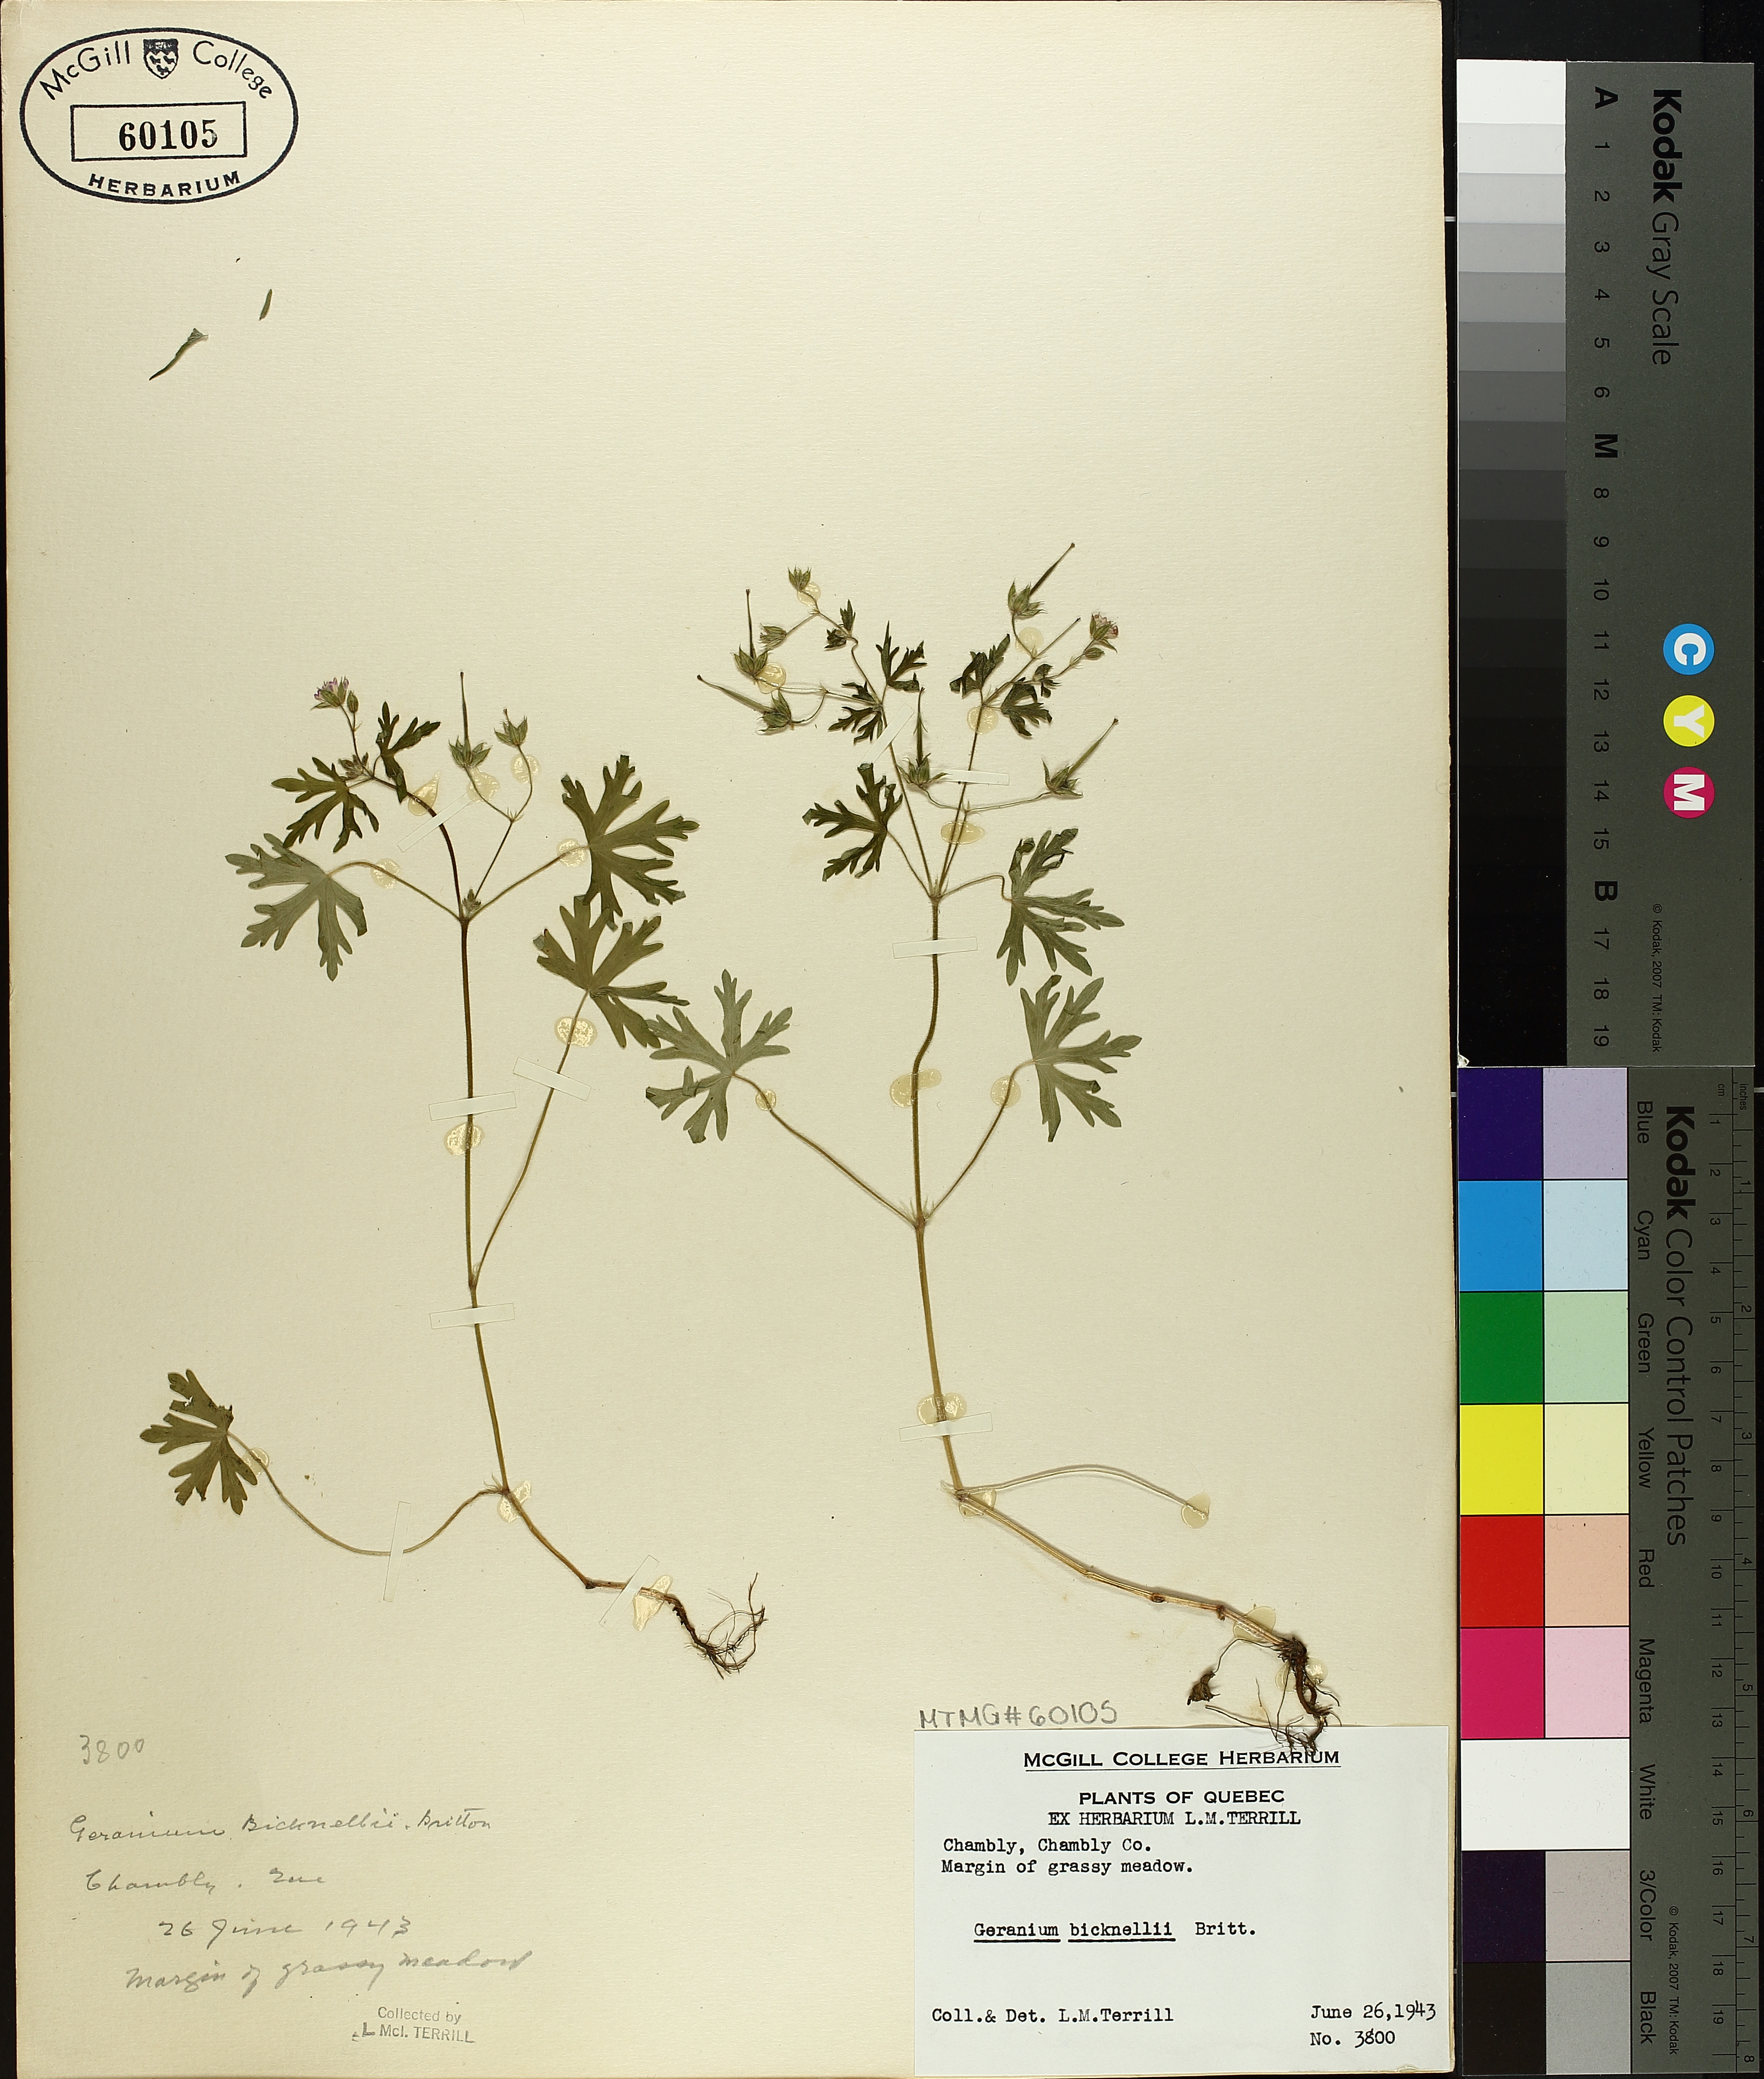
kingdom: Plantae
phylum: Tracheophyta
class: Magnoliopsida
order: Geraniales
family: Geraniaceae
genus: Geranium
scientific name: Geranium bicknellii
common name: Bicknell's cranesbill
